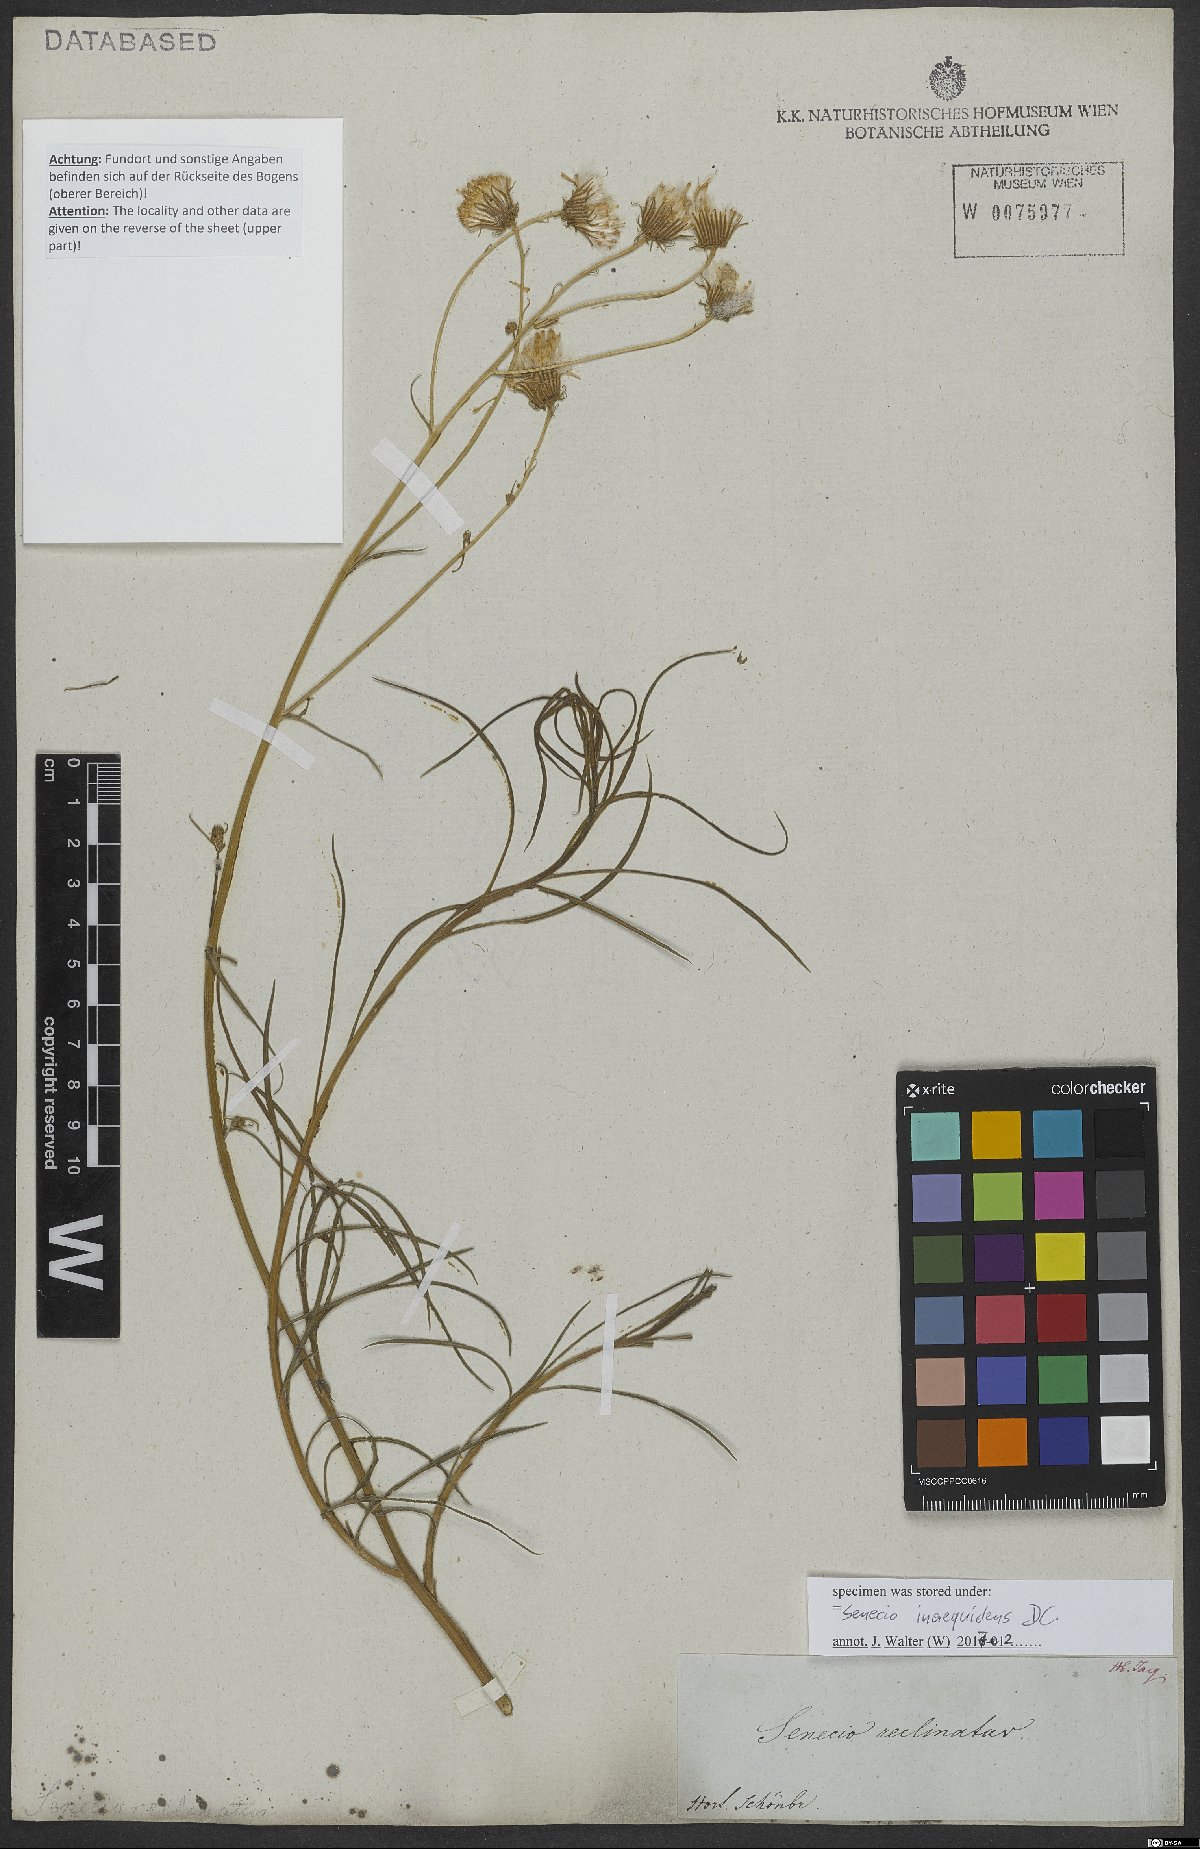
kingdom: Plantae
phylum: Tracheophyta
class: Magnoliopsida
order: Asterales
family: Asteraceae
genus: Senecio
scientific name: Senecio inaequidens
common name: Narrow-leaved ragwort
